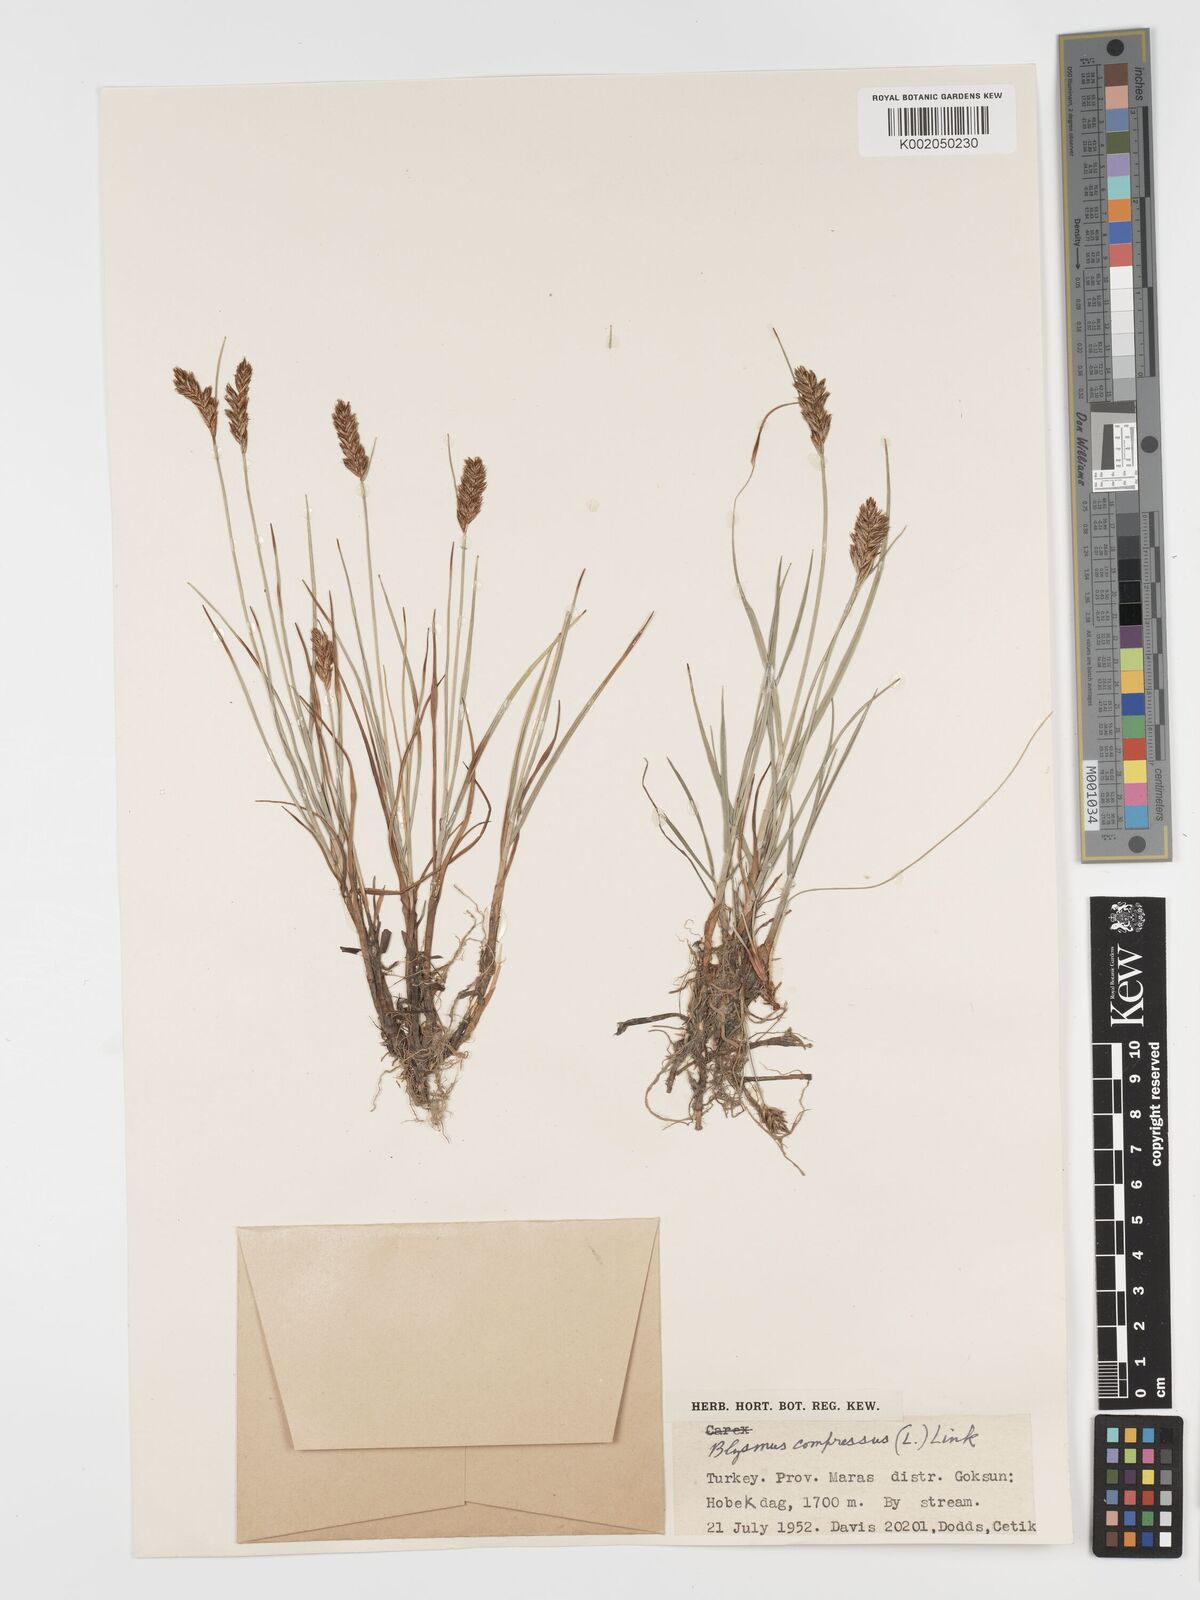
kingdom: Plantae
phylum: Tracheophyta
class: Liliopsida
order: Poales
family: Cyperaceae
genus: Blysmus
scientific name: Blysmus compressus
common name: Flat-sedge
